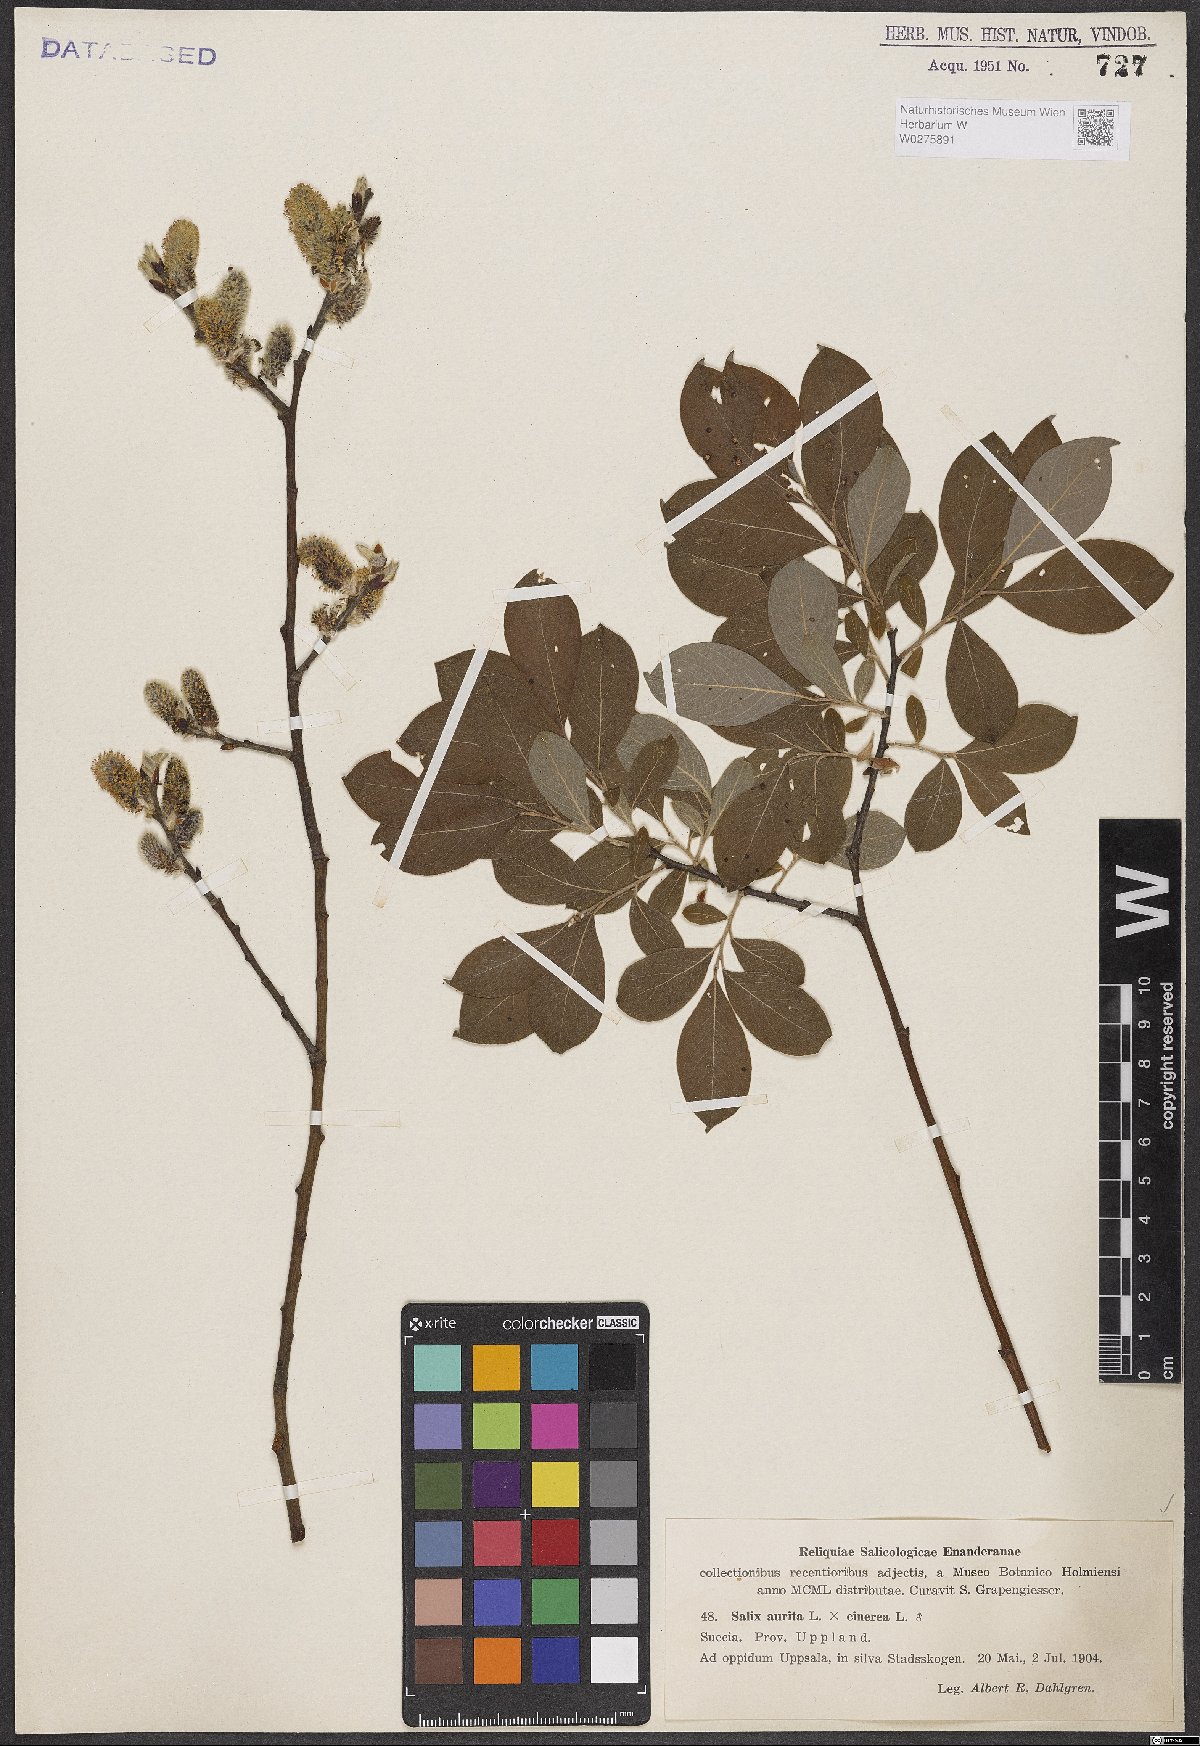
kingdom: Plantae
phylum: Tracheophyta
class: Magnoliopsida
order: Malpighiales
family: Salicaceae
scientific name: Salicaceae
